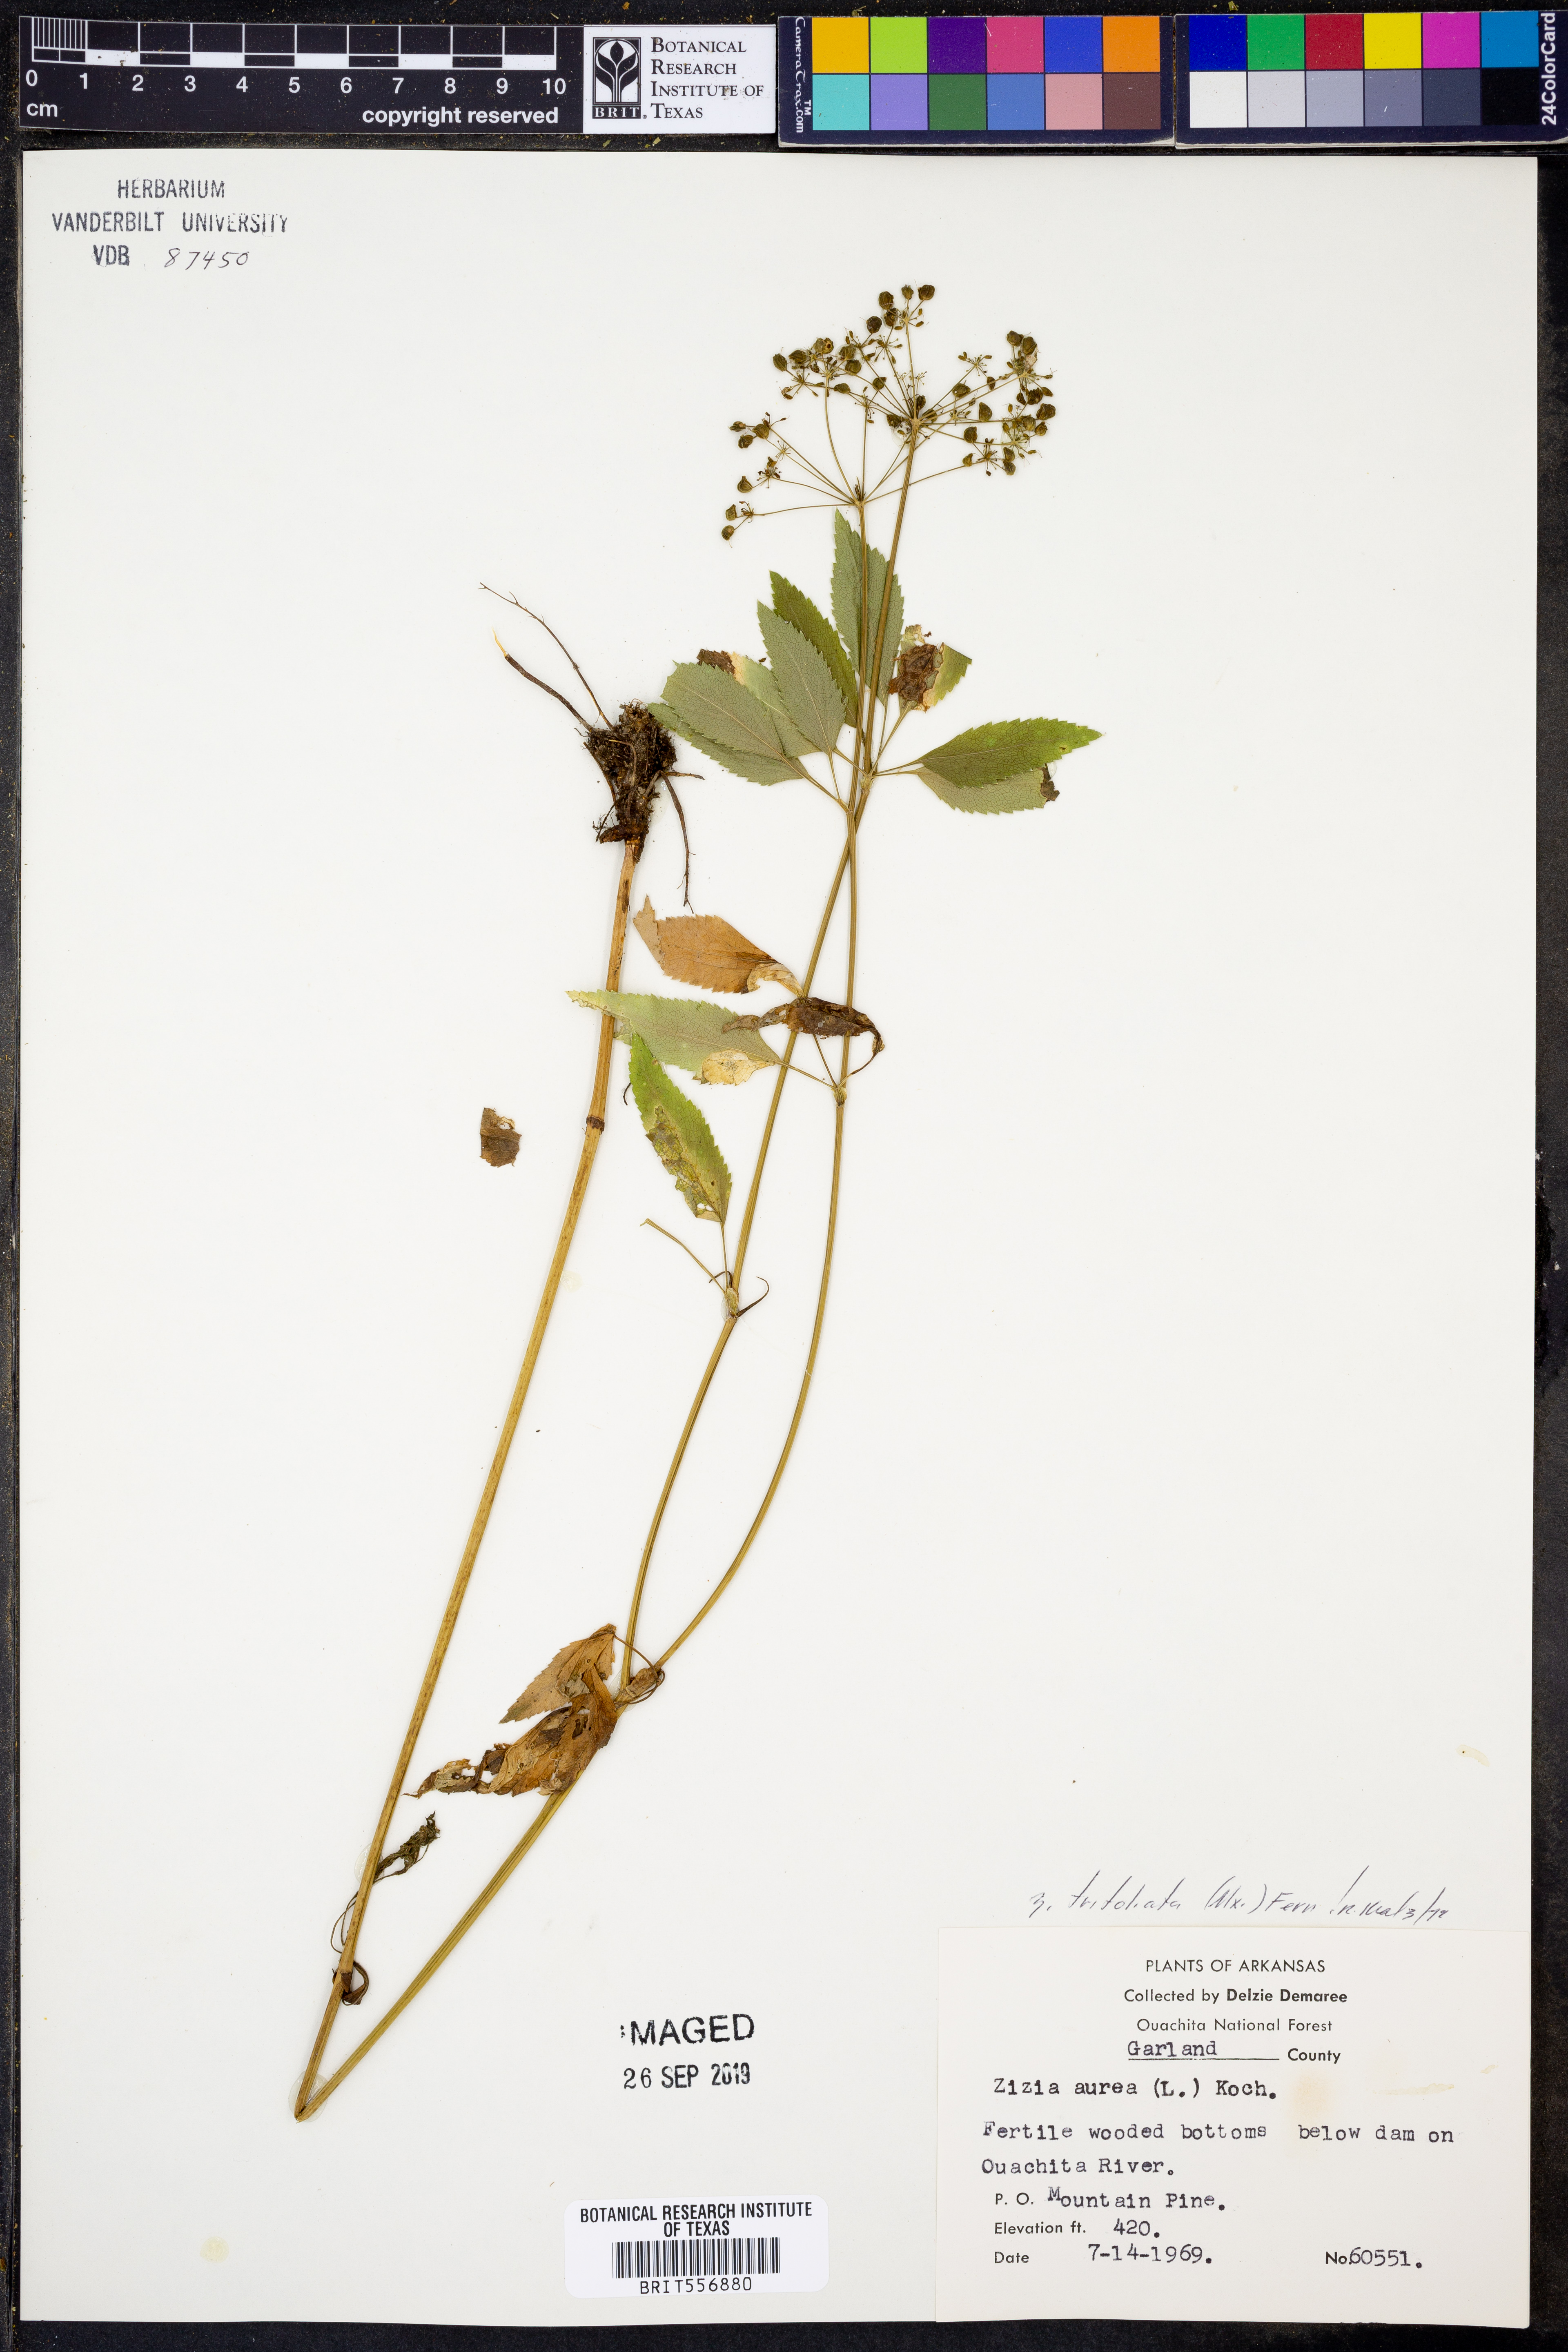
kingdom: Plantae
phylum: Tracheophyta
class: Magnoliopsida
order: Apiales
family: Apiaceae
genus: Zizia
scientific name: Zizia trifoliata
